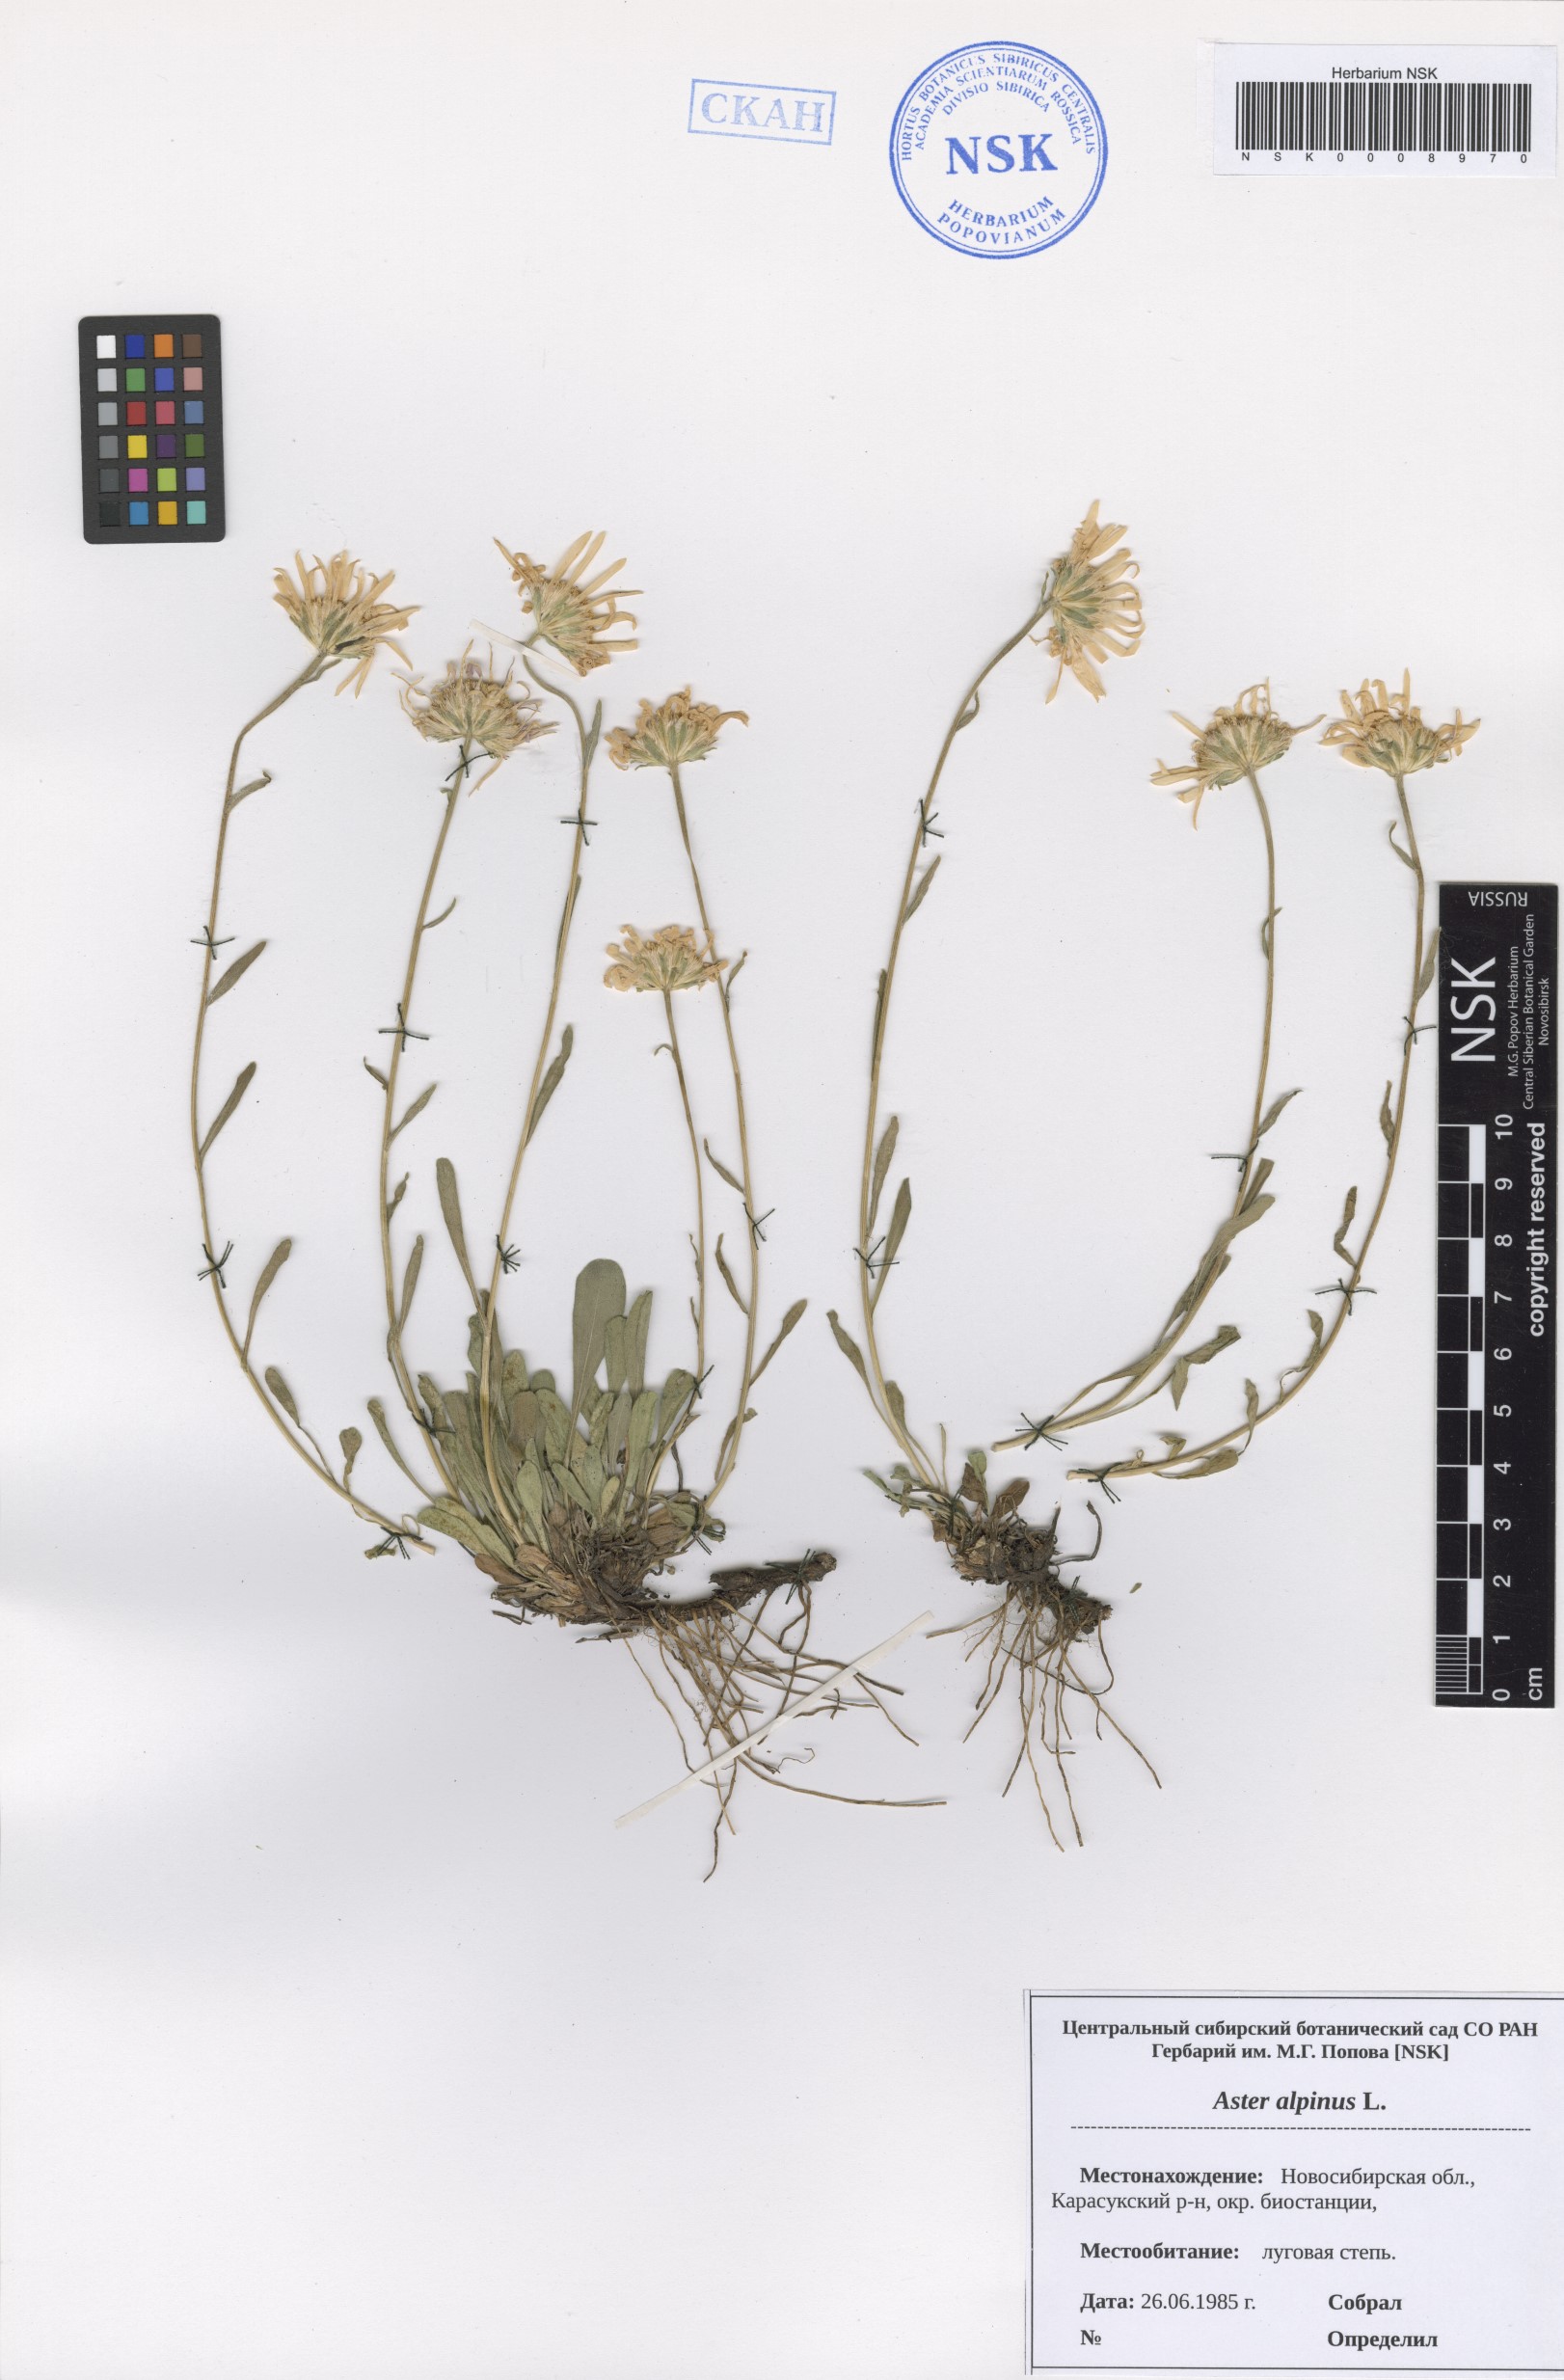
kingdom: Plantae
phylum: Tracheophyta
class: Magnoliopsida
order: Asterales
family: Asteraceae
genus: Aster
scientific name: Aster alpinus
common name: Alpine aster
